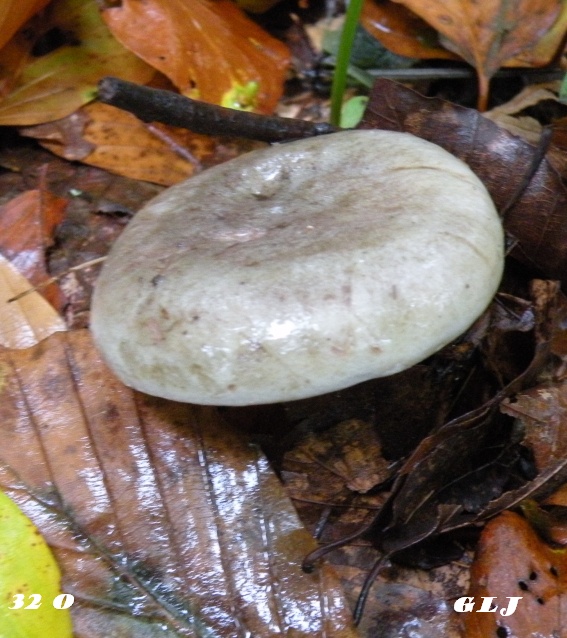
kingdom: Fungi
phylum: Basidiomycota
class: Agaricomycetes
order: Russulales
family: Russulaceae
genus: Lactarius
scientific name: Lactarius blennius
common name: dråbeplettet mælkehat
